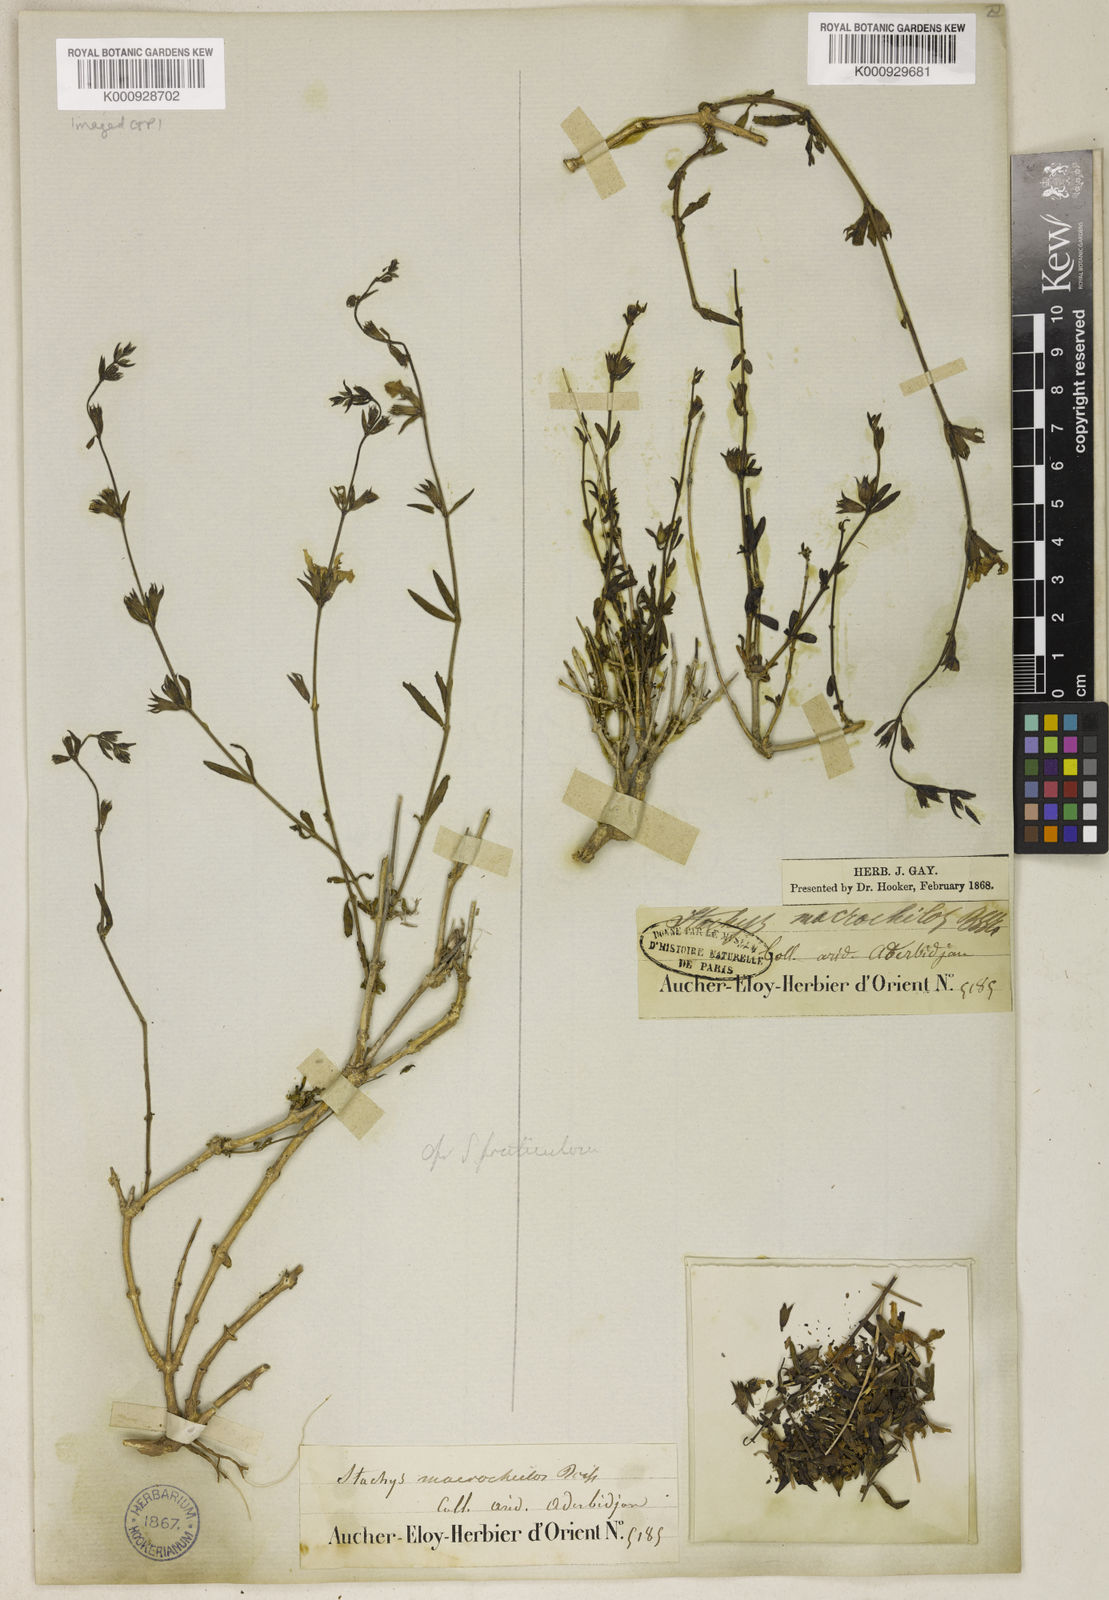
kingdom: Plantae
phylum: Tracheophyta
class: Magnoliopsida
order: Lamiales
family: Lamiaceae
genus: Stachys
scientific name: Stachys fruticulosa
